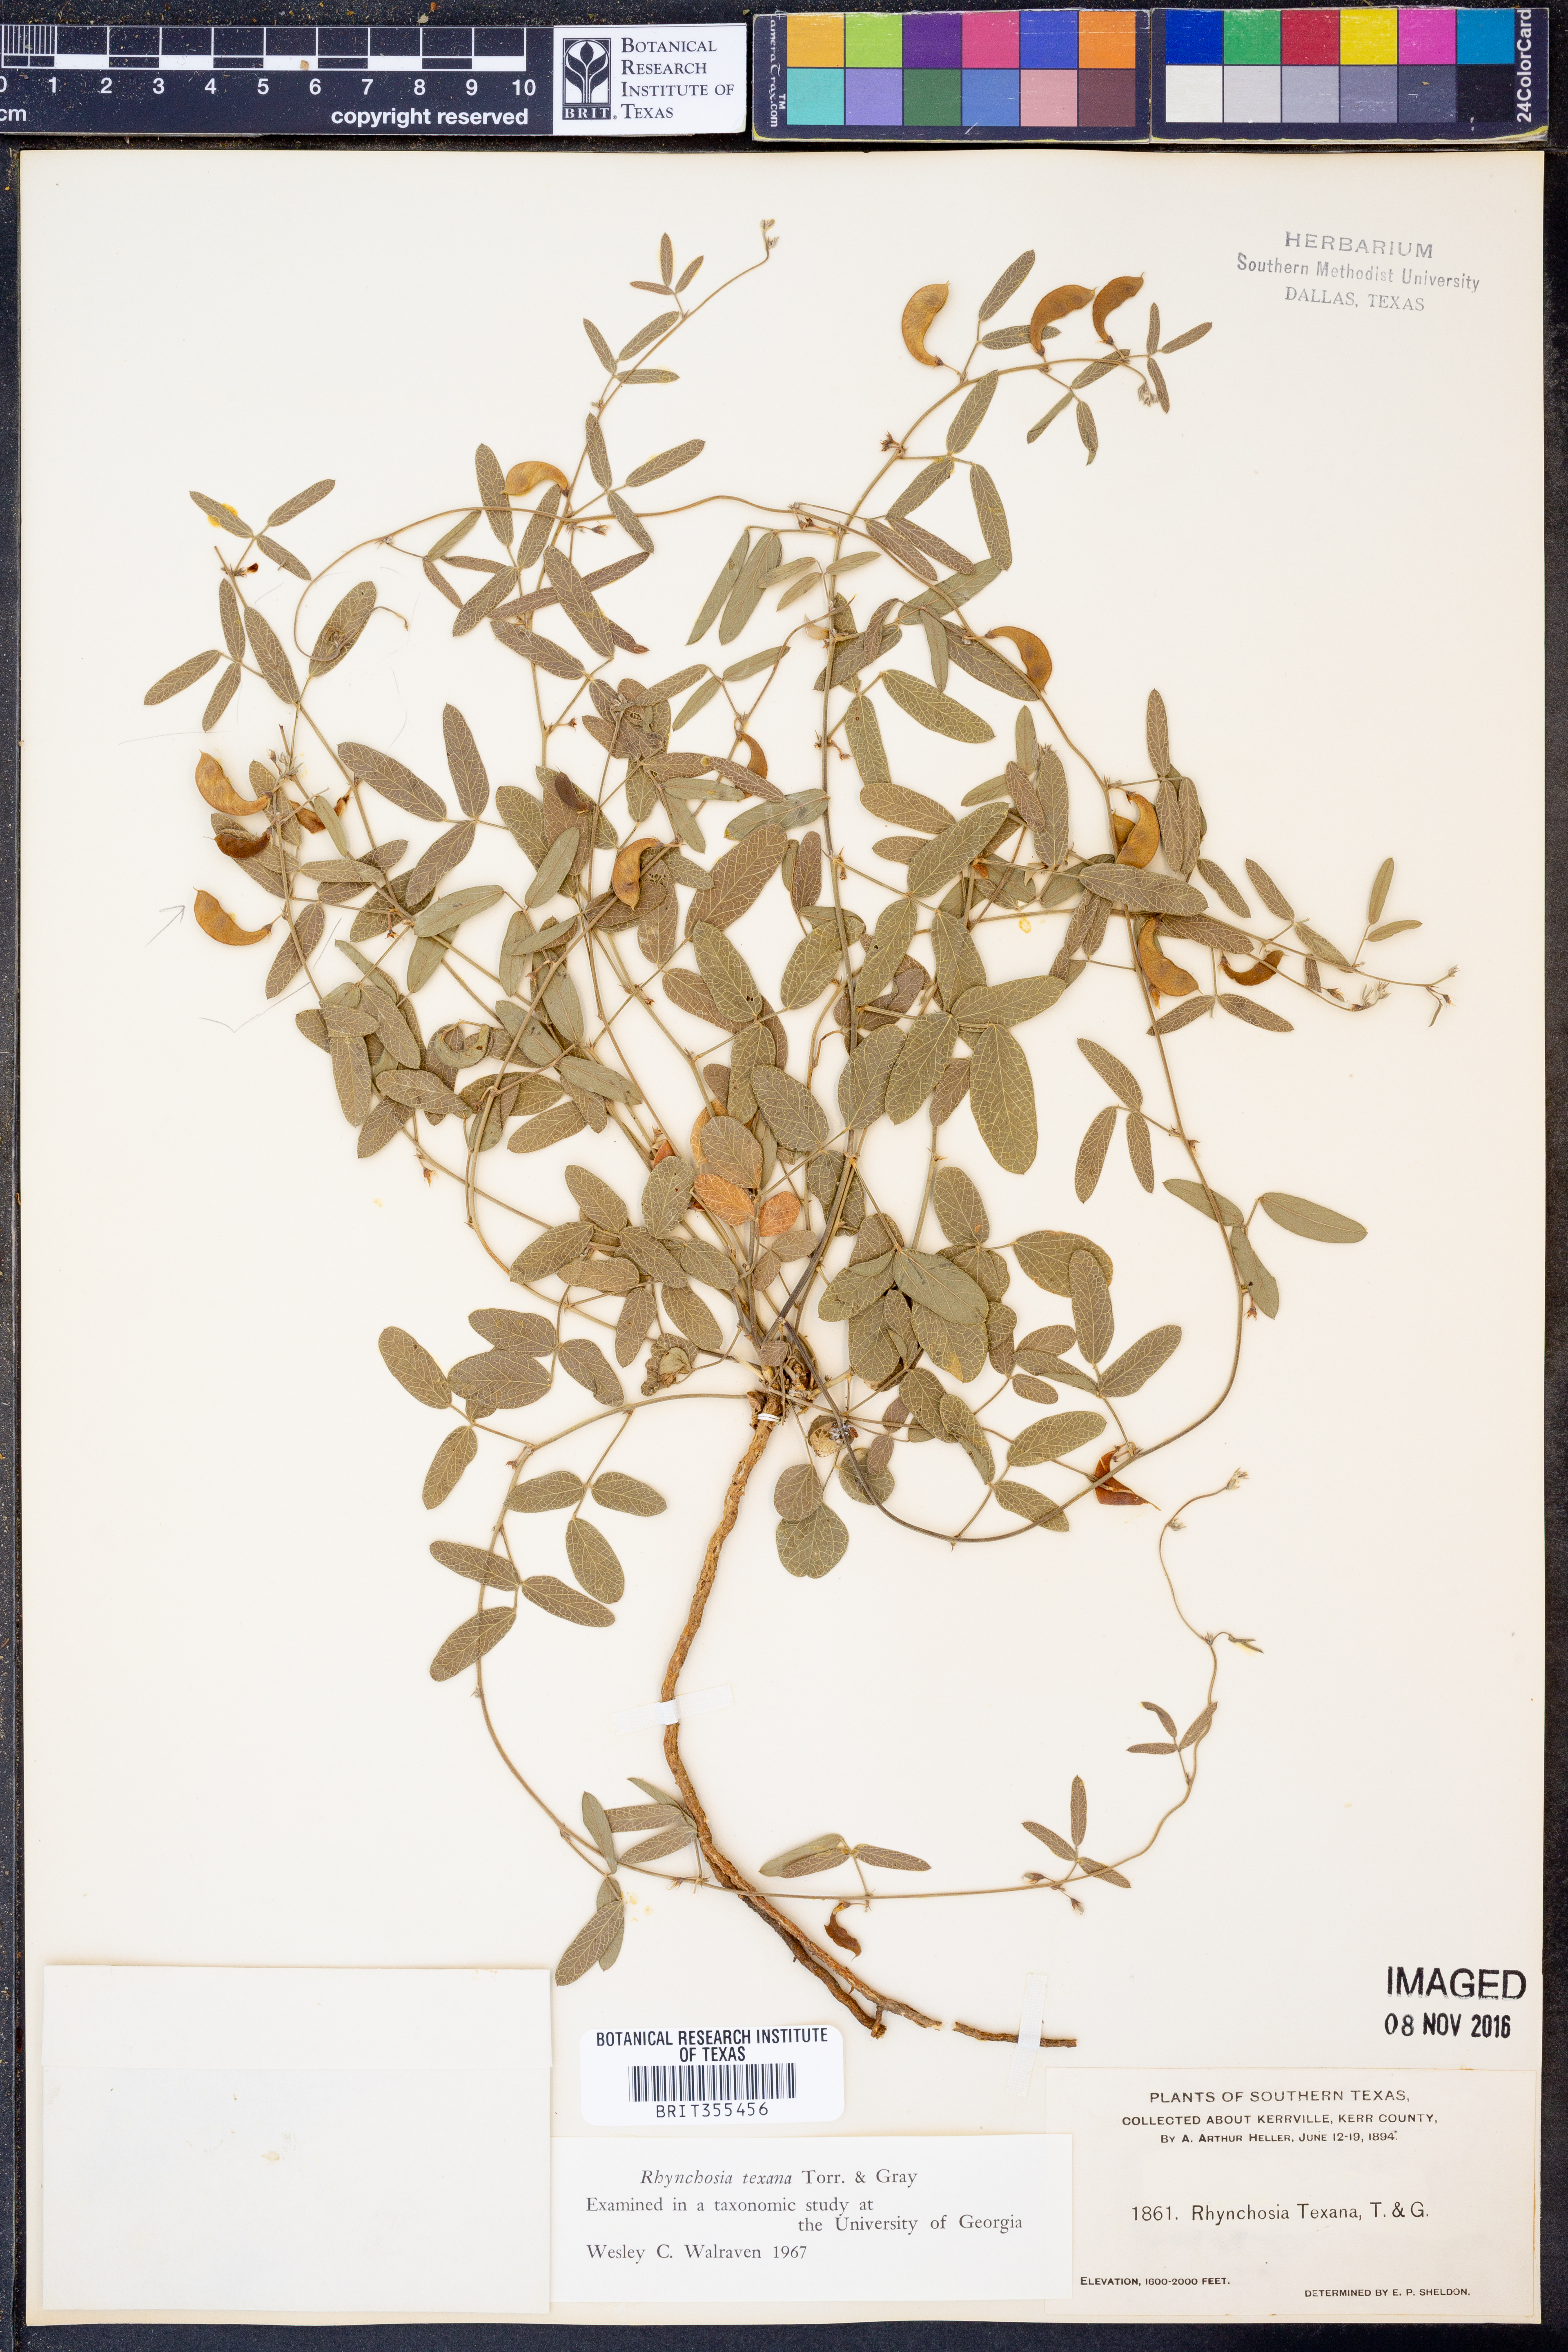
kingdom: Plantae
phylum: Tracheophyta
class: Magnoliopsida
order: Fabales
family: Fabaceae
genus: Rhynchosia
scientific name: Rhynchosia senna
